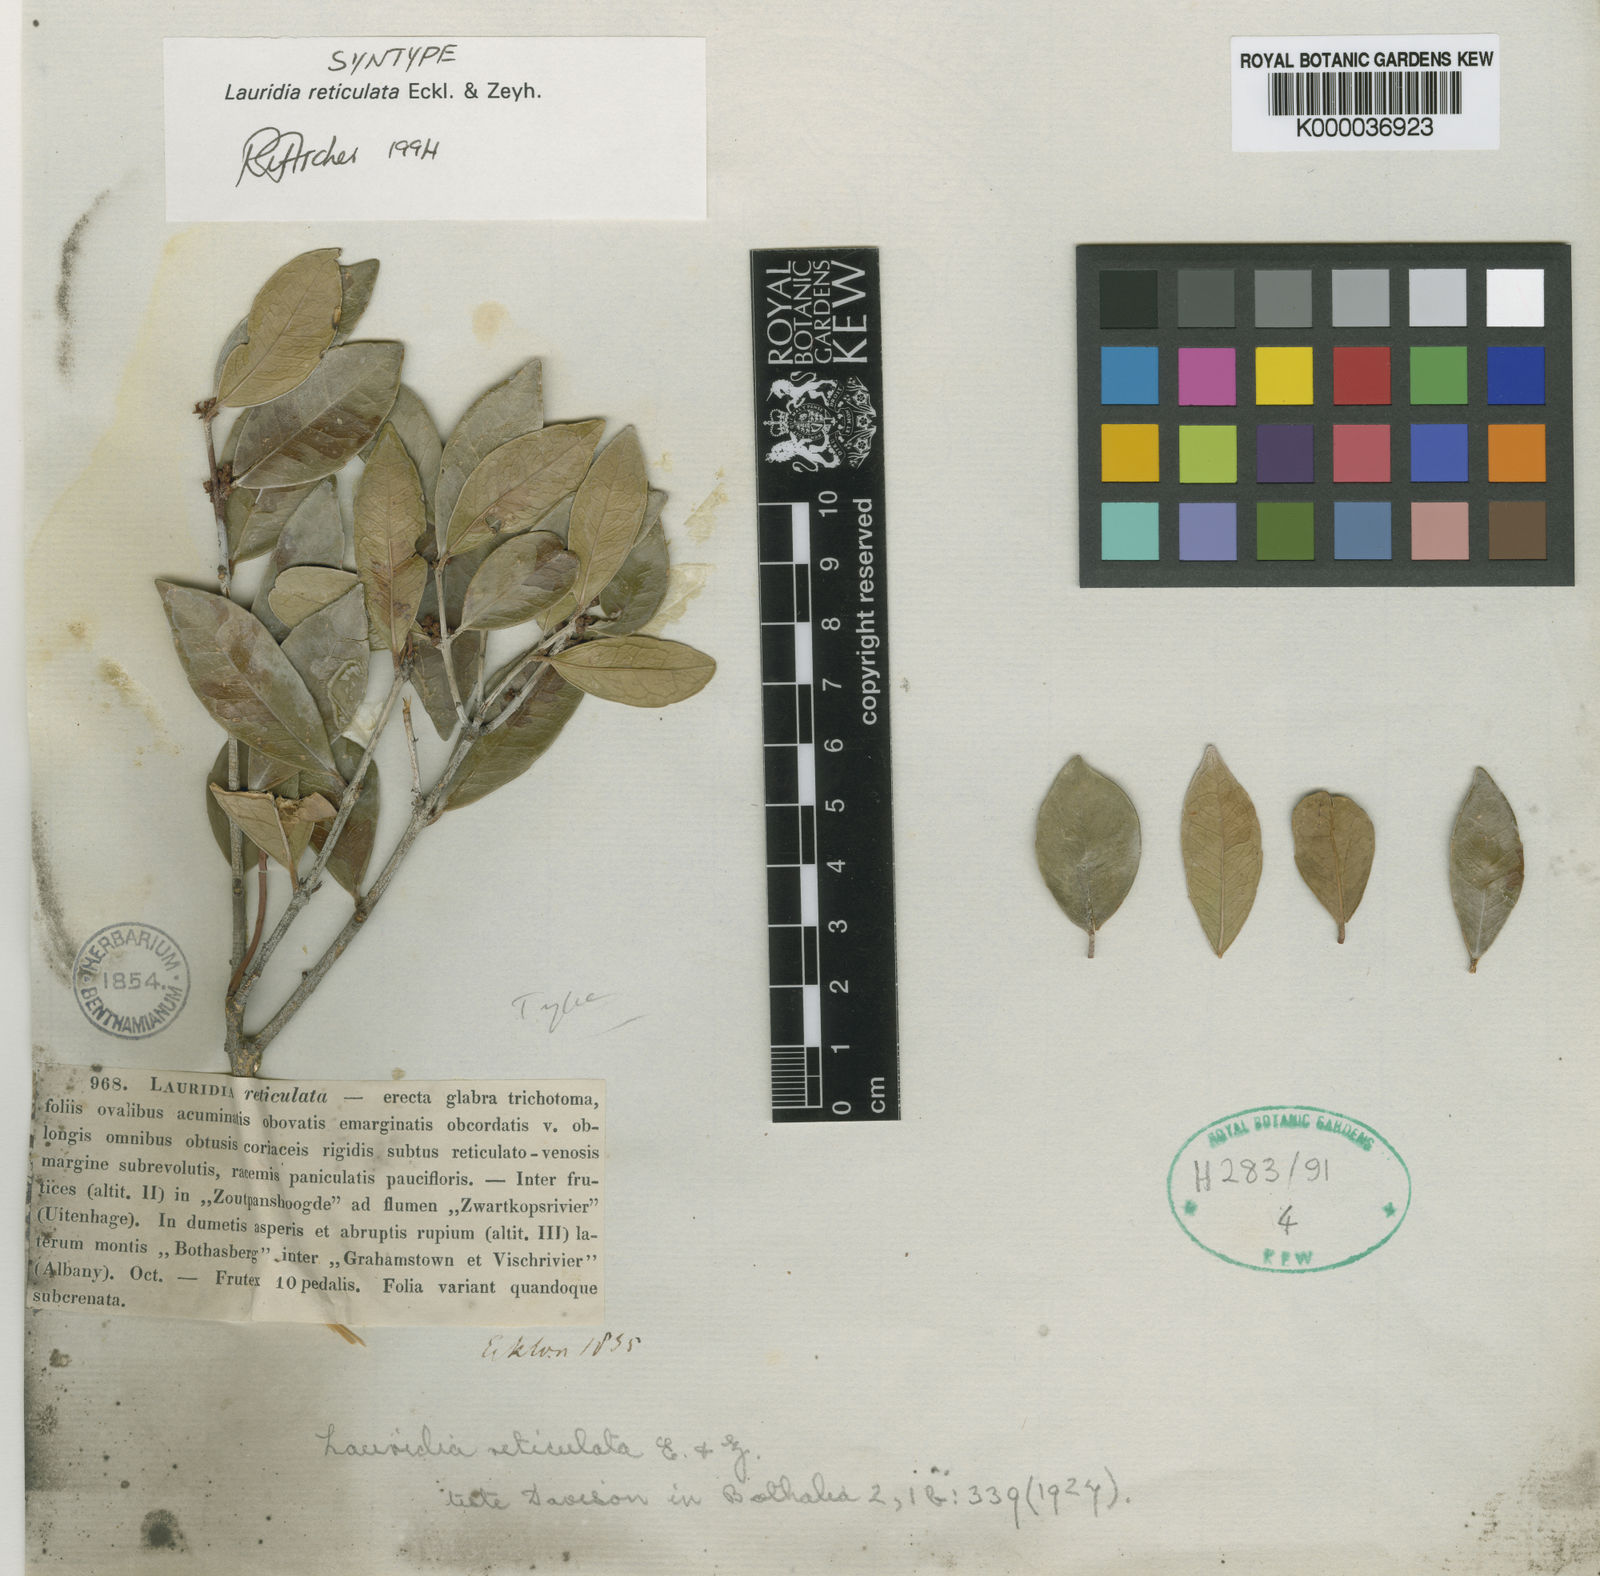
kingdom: Plantae
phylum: Tracheophyta
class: Magnoliopsida
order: Celastrales
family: Celastraceae
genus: Lauridia
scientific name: Lauridia reticulata
